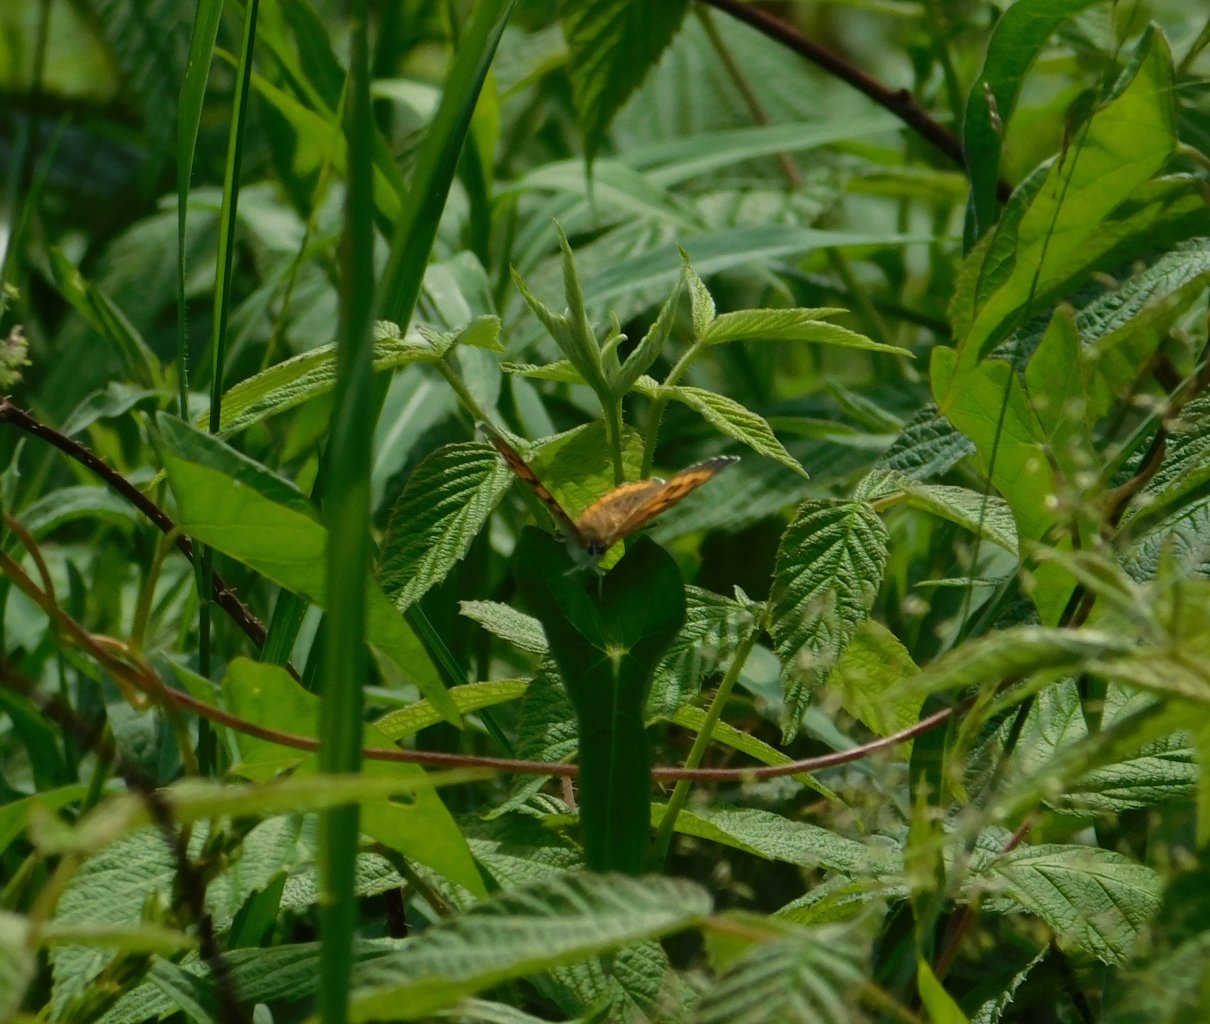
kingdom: Animalia
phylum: Arthropoda
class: Insecta
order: Lepidoptera
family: Sesiidae
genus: Sesia
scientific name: Sesia Lycaena hyllus
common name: Bronze Copper
